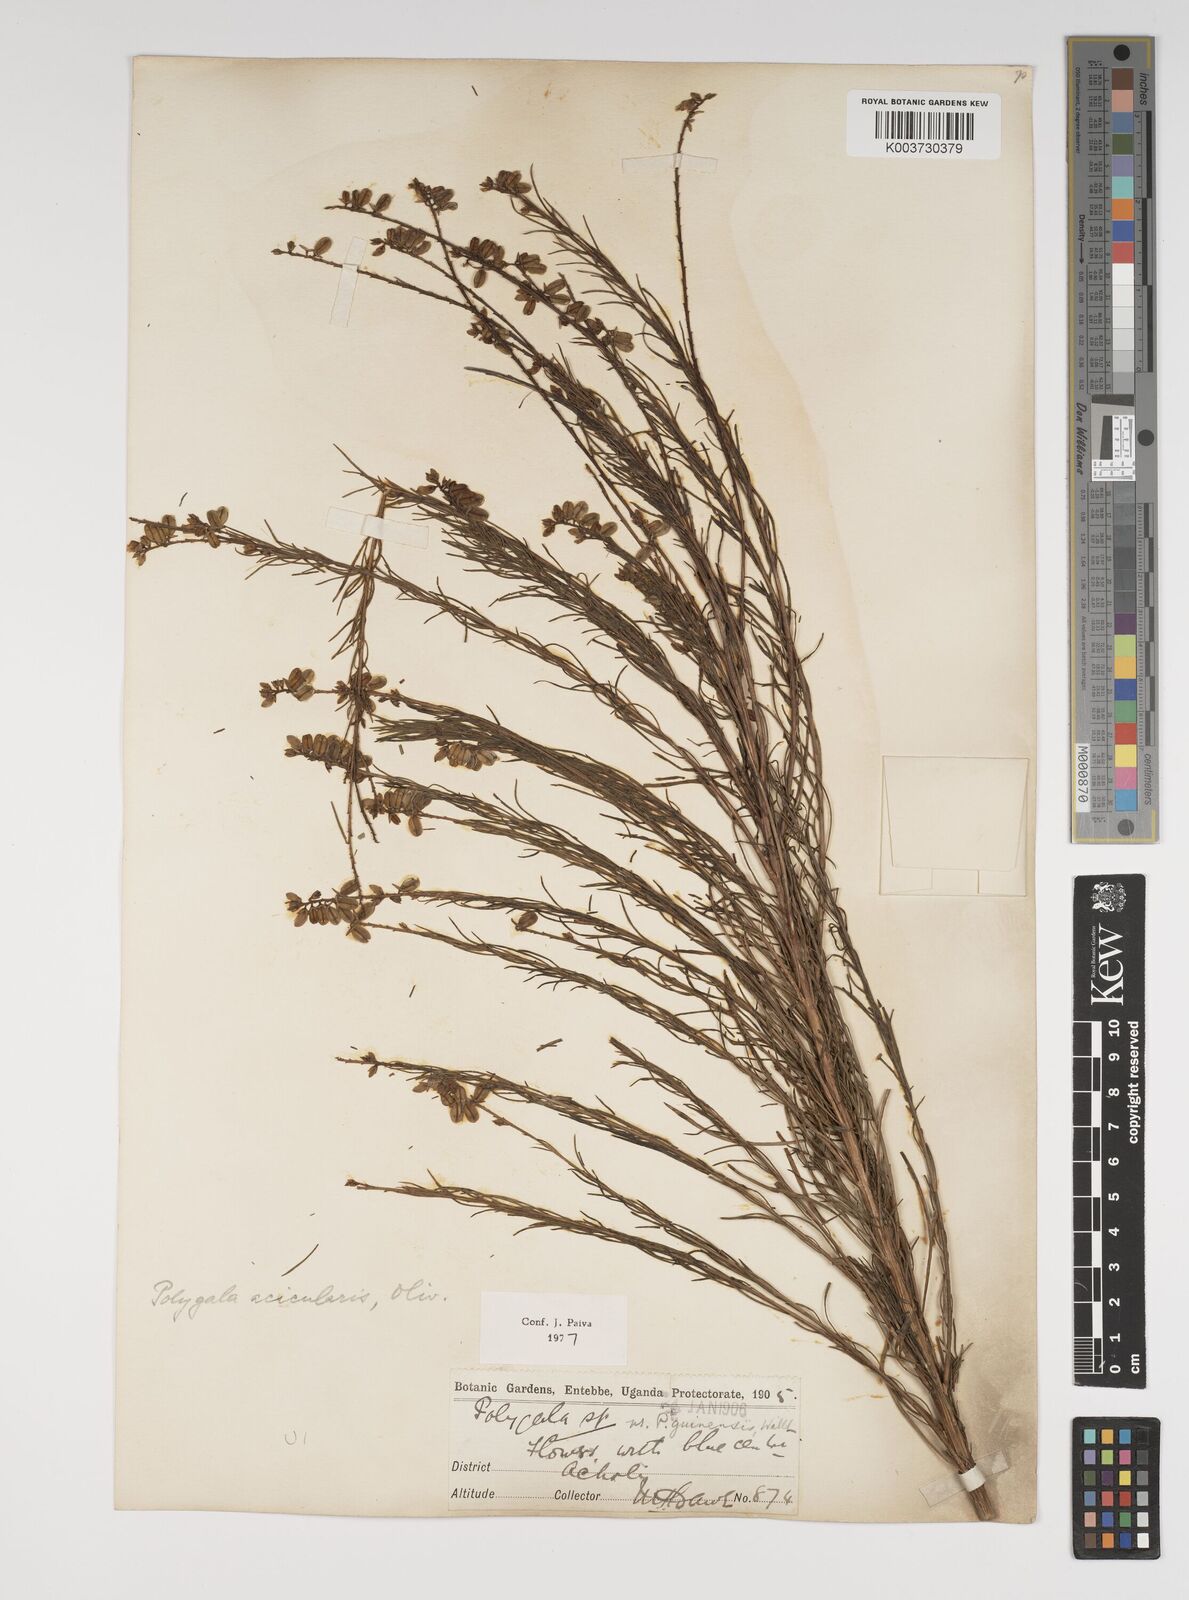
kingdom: Plantae
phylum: Tracheophyta
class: Magnoliopsida
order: Fabales
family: Polygalaceae
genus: Polygala
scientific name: Polygala acicularis
